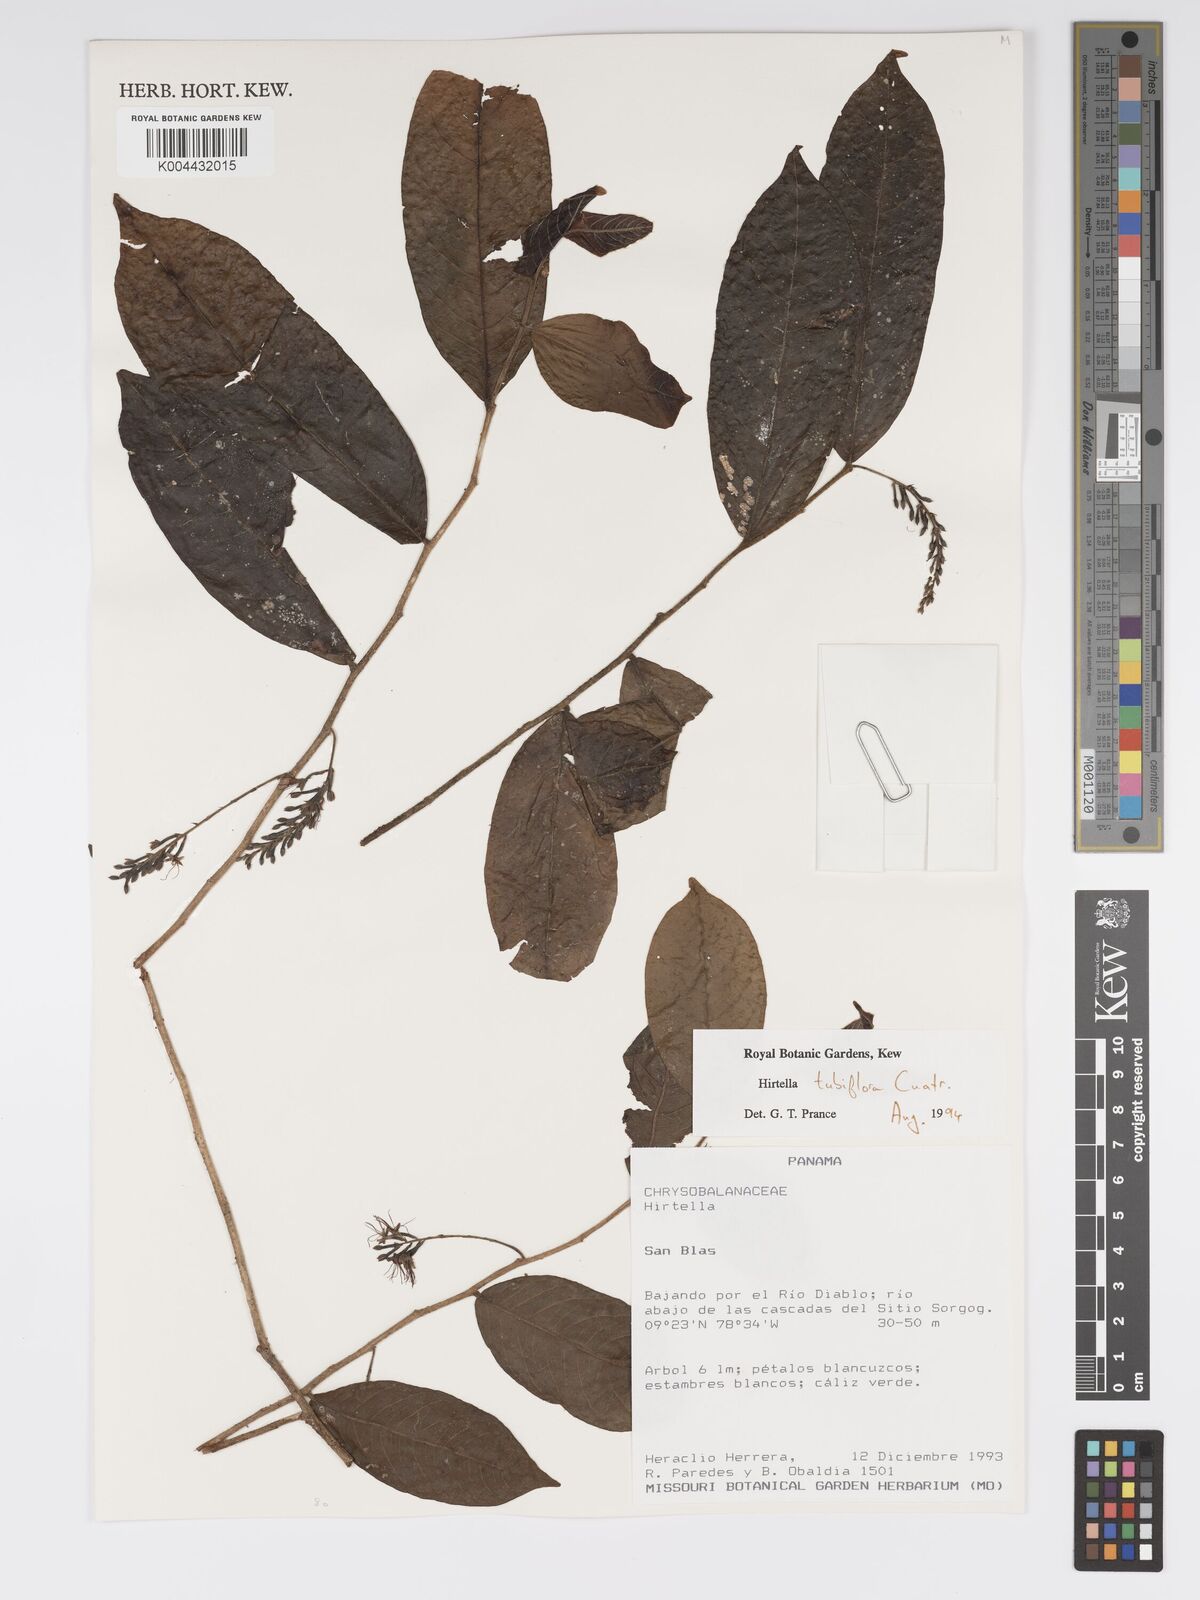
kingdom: Plantae
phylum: Tracheophyta
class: Magnoliopsida
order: Malpighiales
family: Chrysobalanaceae
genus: Hirtella
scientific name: Hirtella tubiflora
